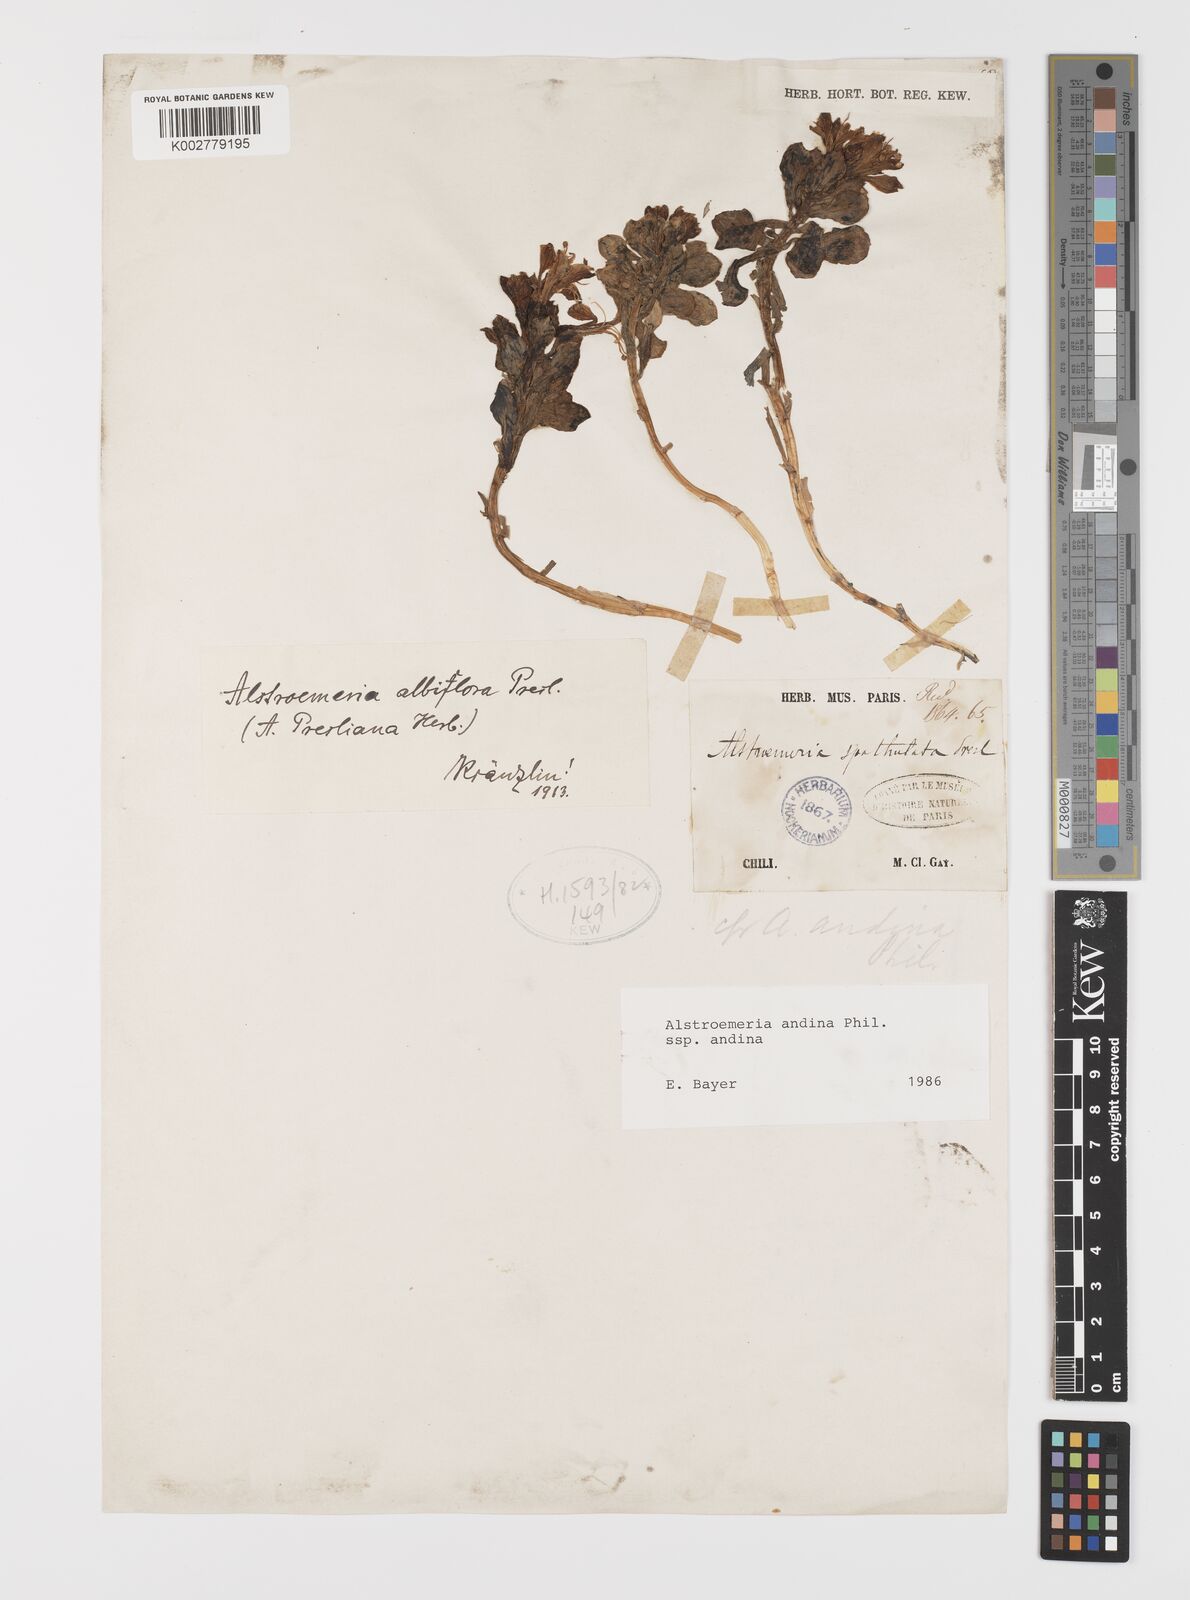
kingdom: Plantae
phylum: Tracheophyta
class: Liliopsida
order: Liliales
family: Alstroemeriaceae
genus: Alstroemeria
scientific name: Alstroemeria andina
